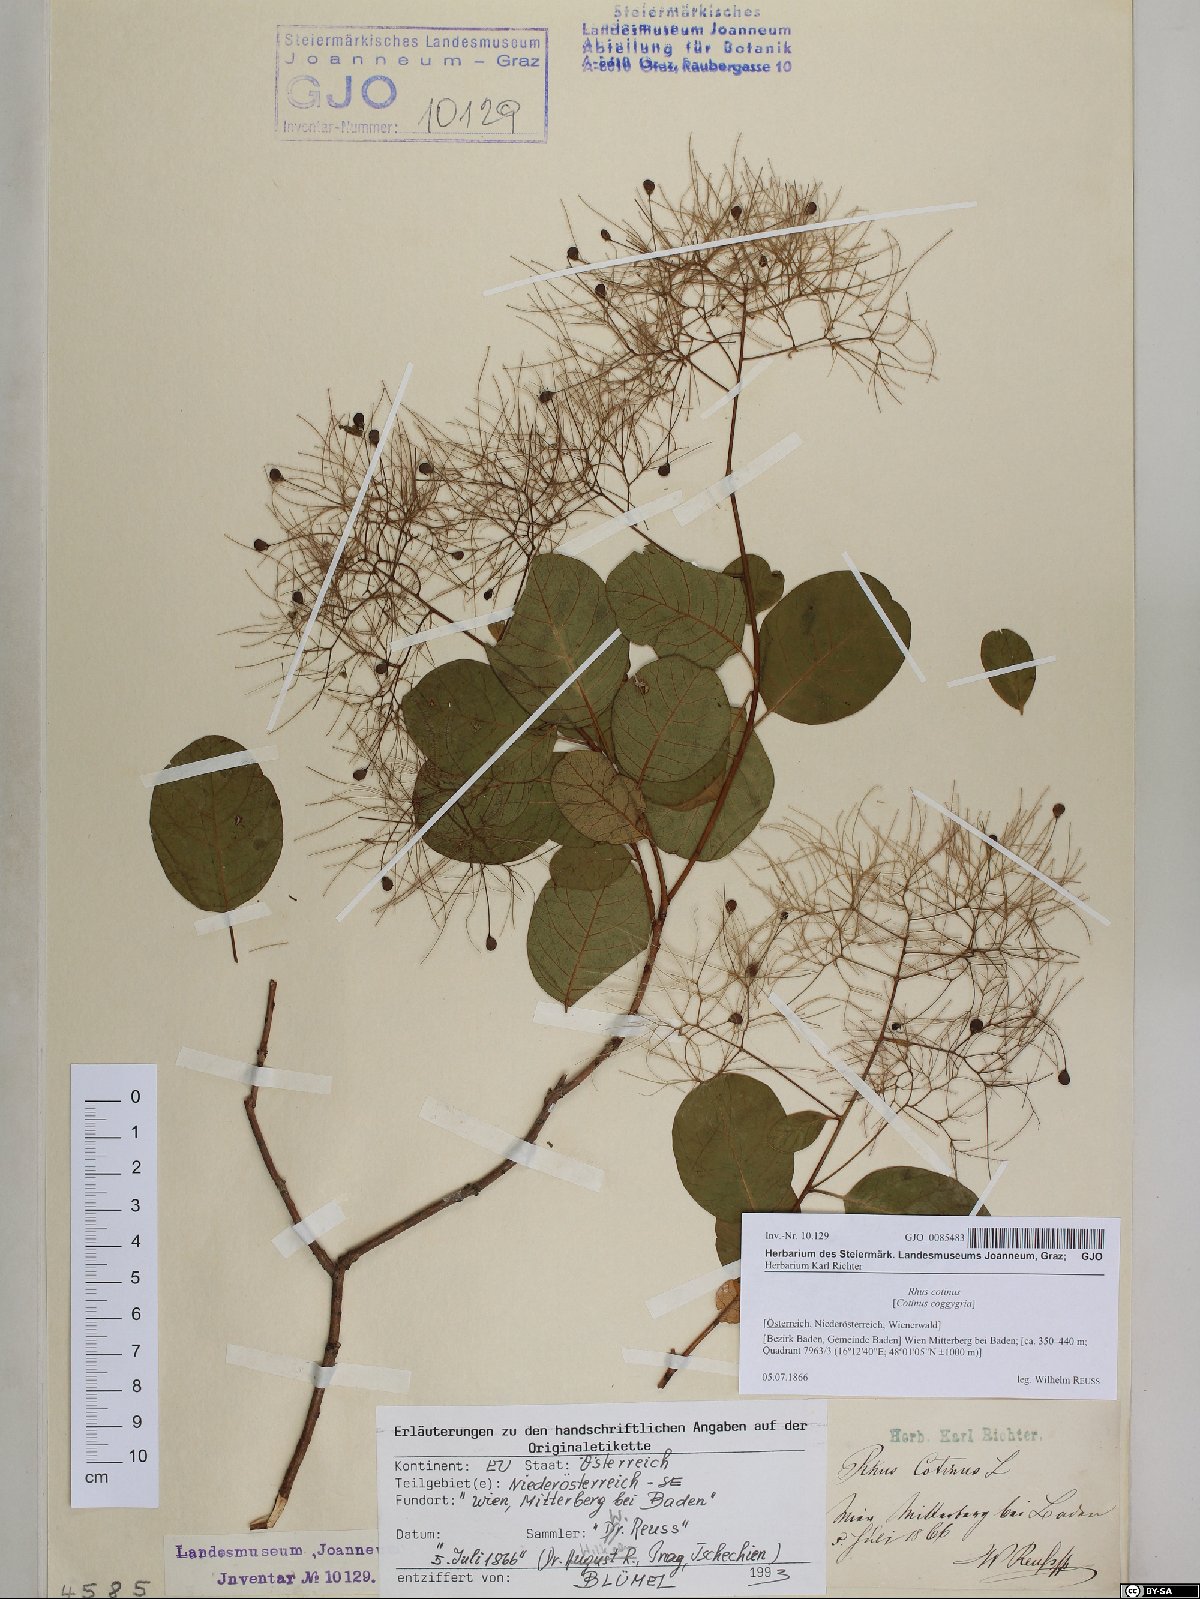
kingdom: Plantae
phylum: Tracheophyta
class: Magnoliopsida
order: Sapindales
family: Anacardiaceae
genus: Cotinus
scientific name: Cotinus coggygria
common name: Smoke-tree
